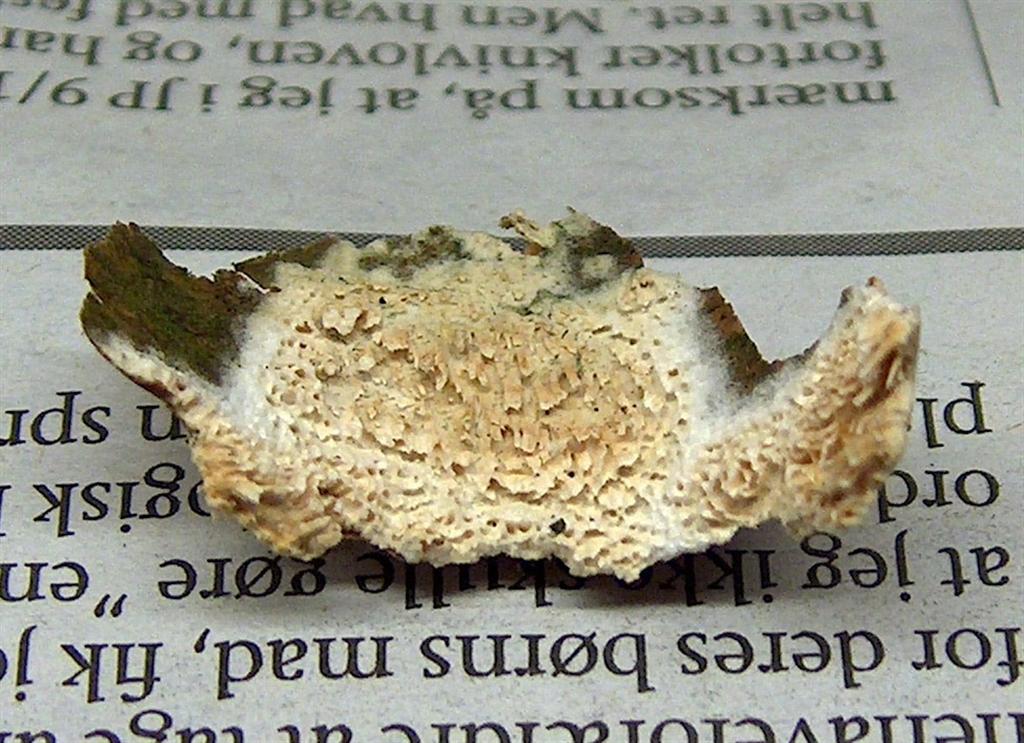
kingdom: Fungi
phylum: Basidiomycota
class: Agaricomycetes
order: Hymenochaetales
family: Schizoporaceae
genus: Schizopora
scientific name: Schizopora paradoxa
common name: hvid tandsvamp
